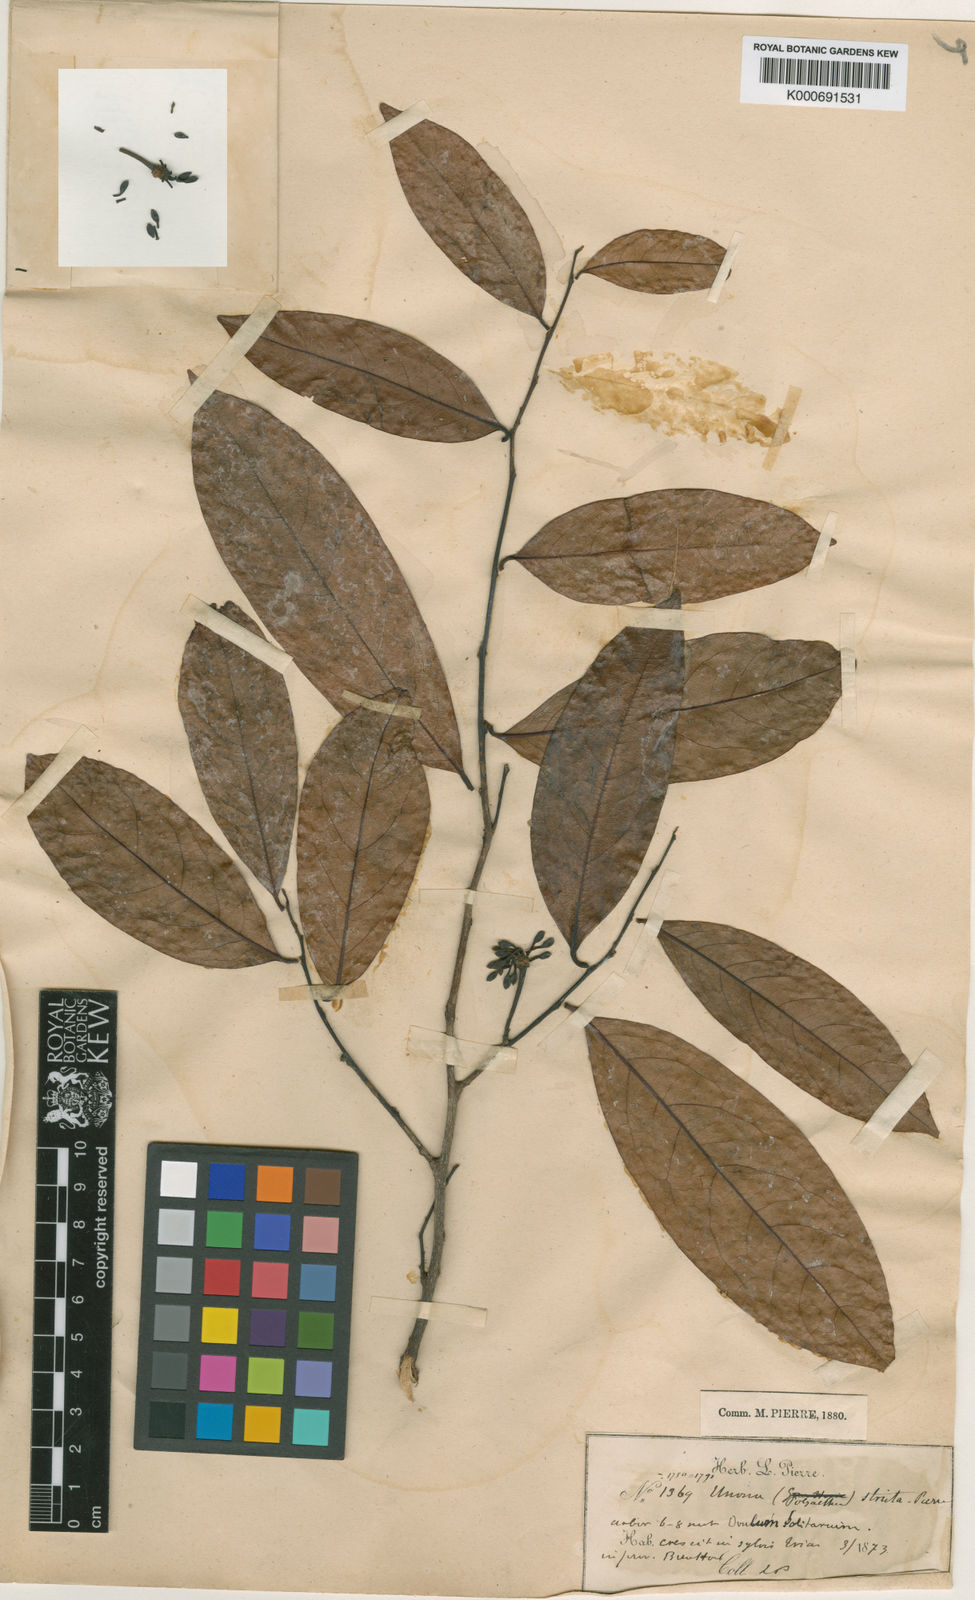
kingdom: Plantae
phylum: Tracheophyta
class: Magnoliopsida
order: Magnoliales
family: Annonaceae
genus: Hubera
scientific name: Hubera jenkinsii
